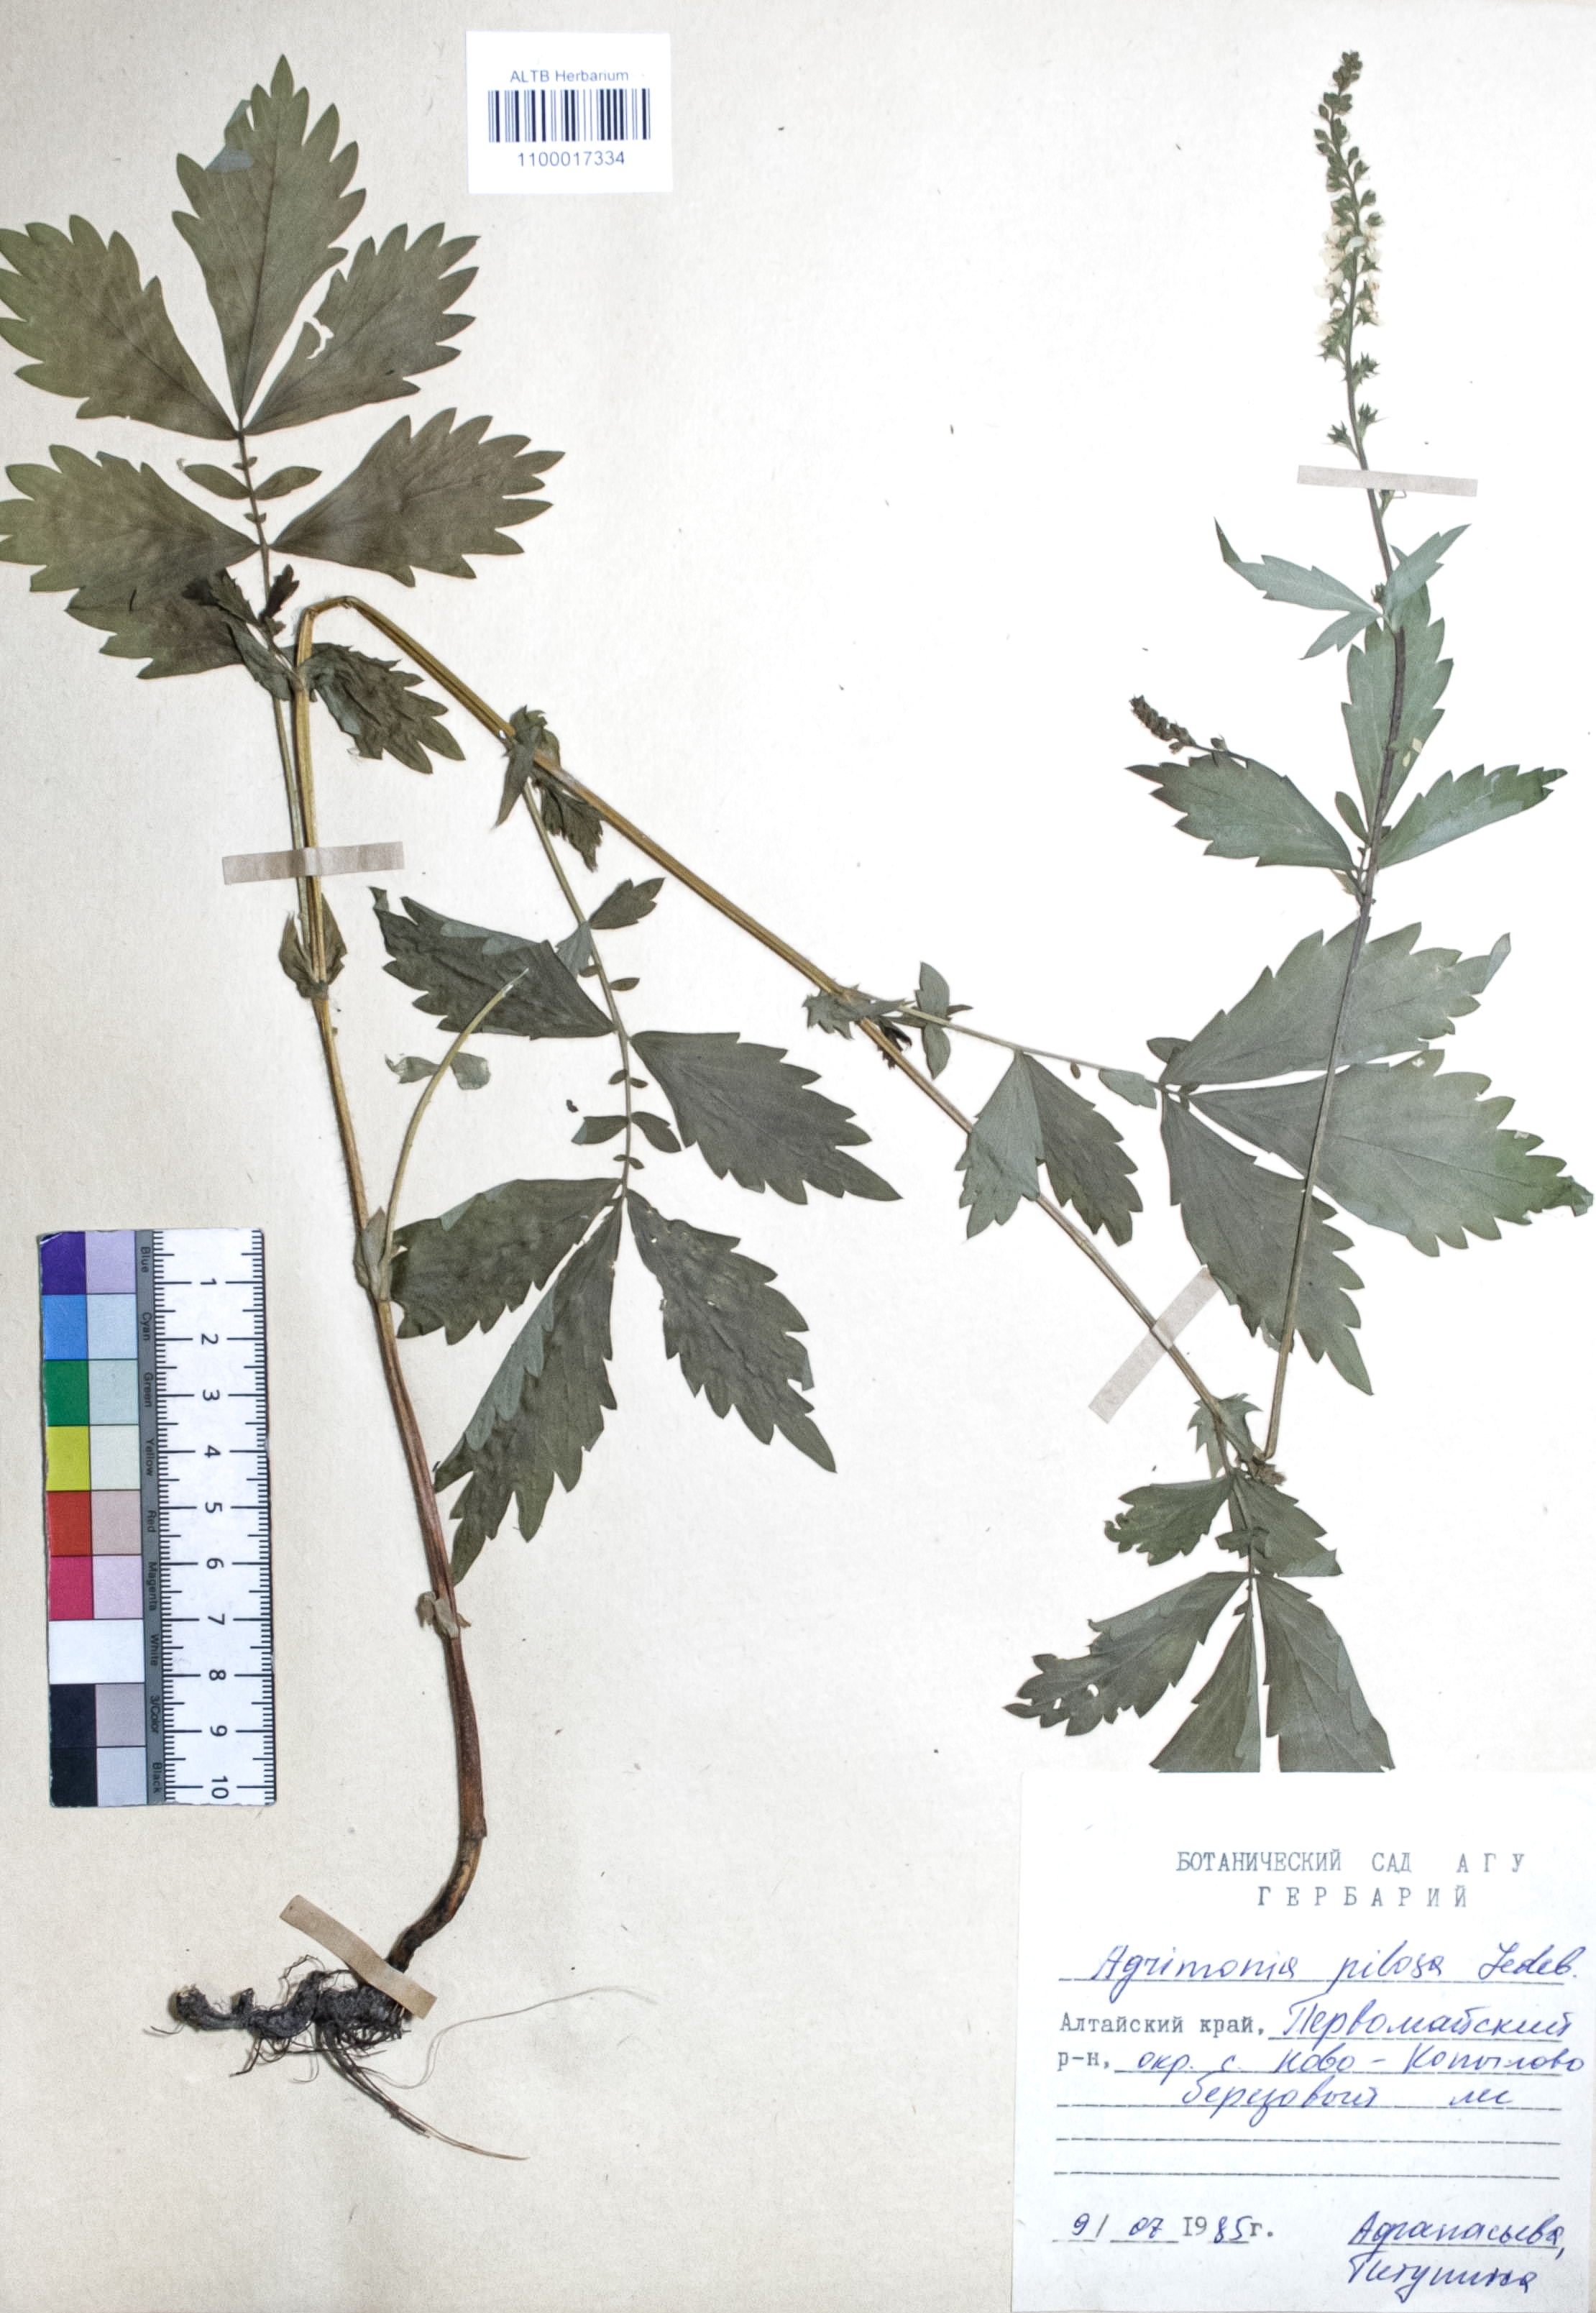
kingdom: Plantae
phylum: Tracheophyta
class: Magnoliopsida
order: Rosales
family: Rosaceae
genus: Agrimonia
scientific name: Agrimonia pilosa
